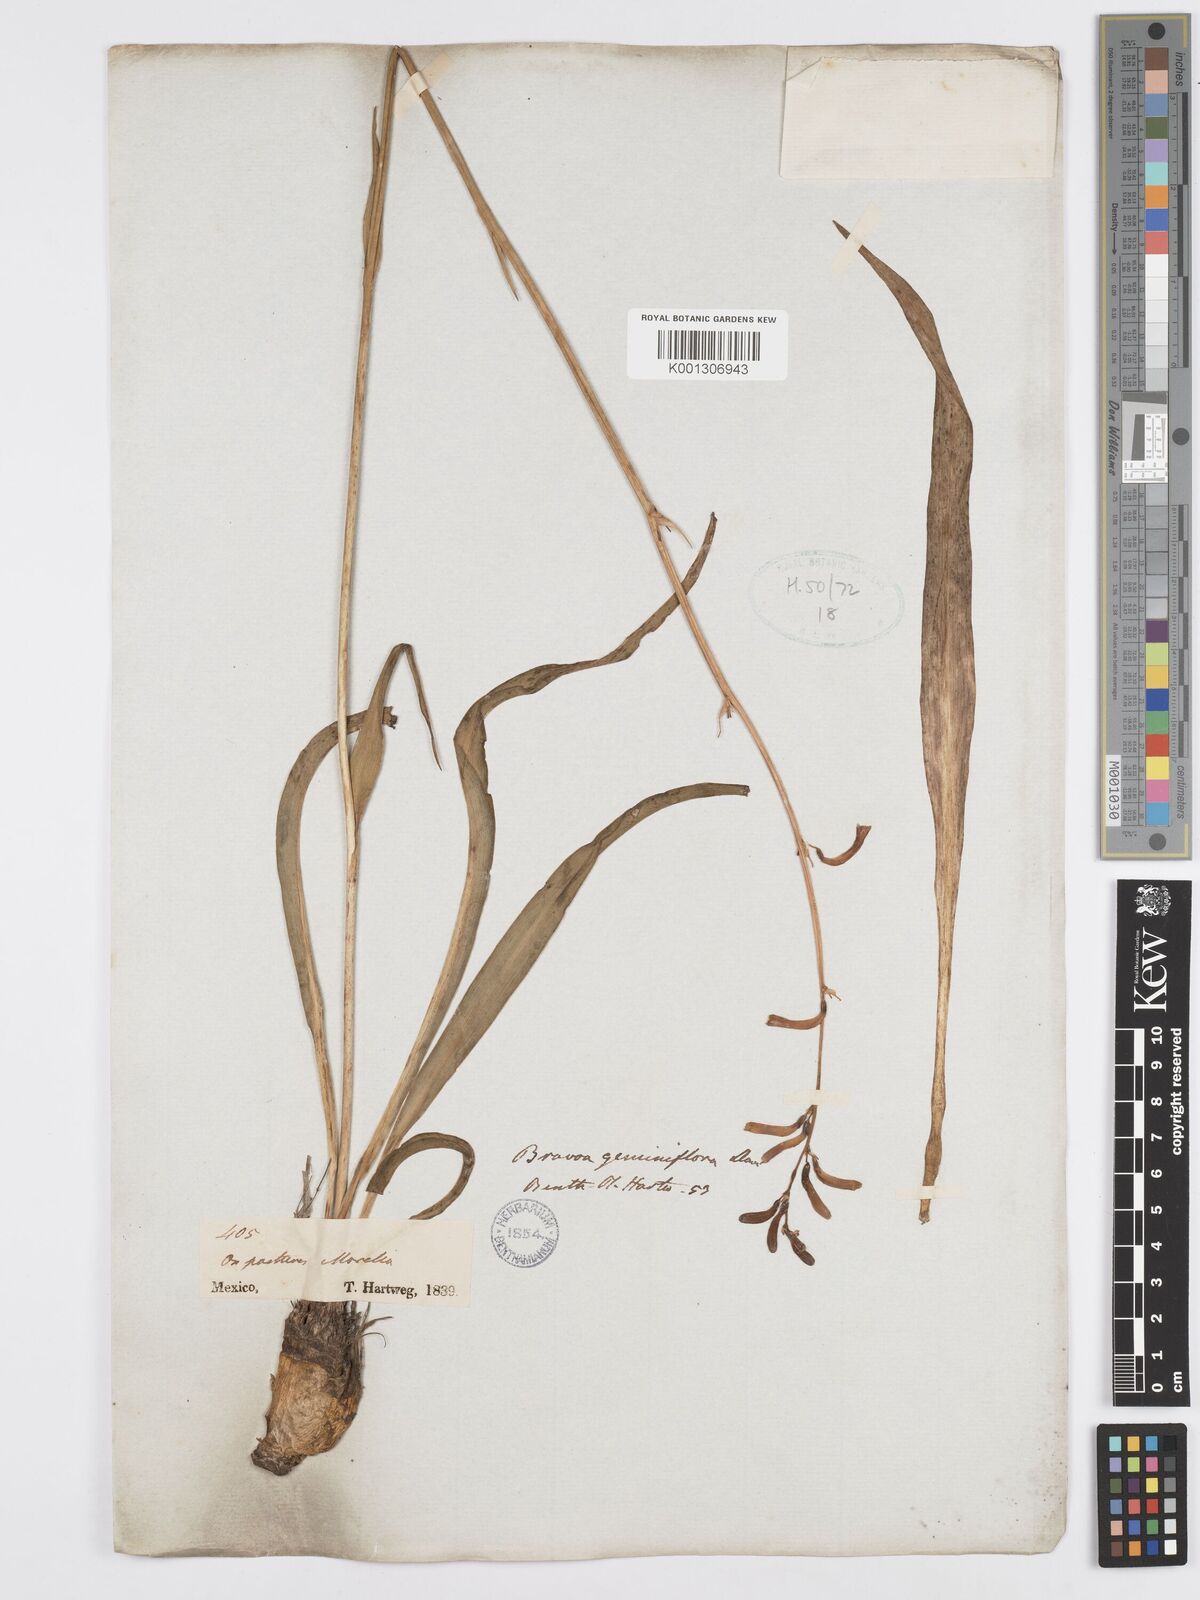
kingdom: Plantae
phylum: Tracheophyta
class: Liliopsida
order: Asparagales
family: Asparagaceae
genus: Agave
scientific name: Agave coetocapnia
